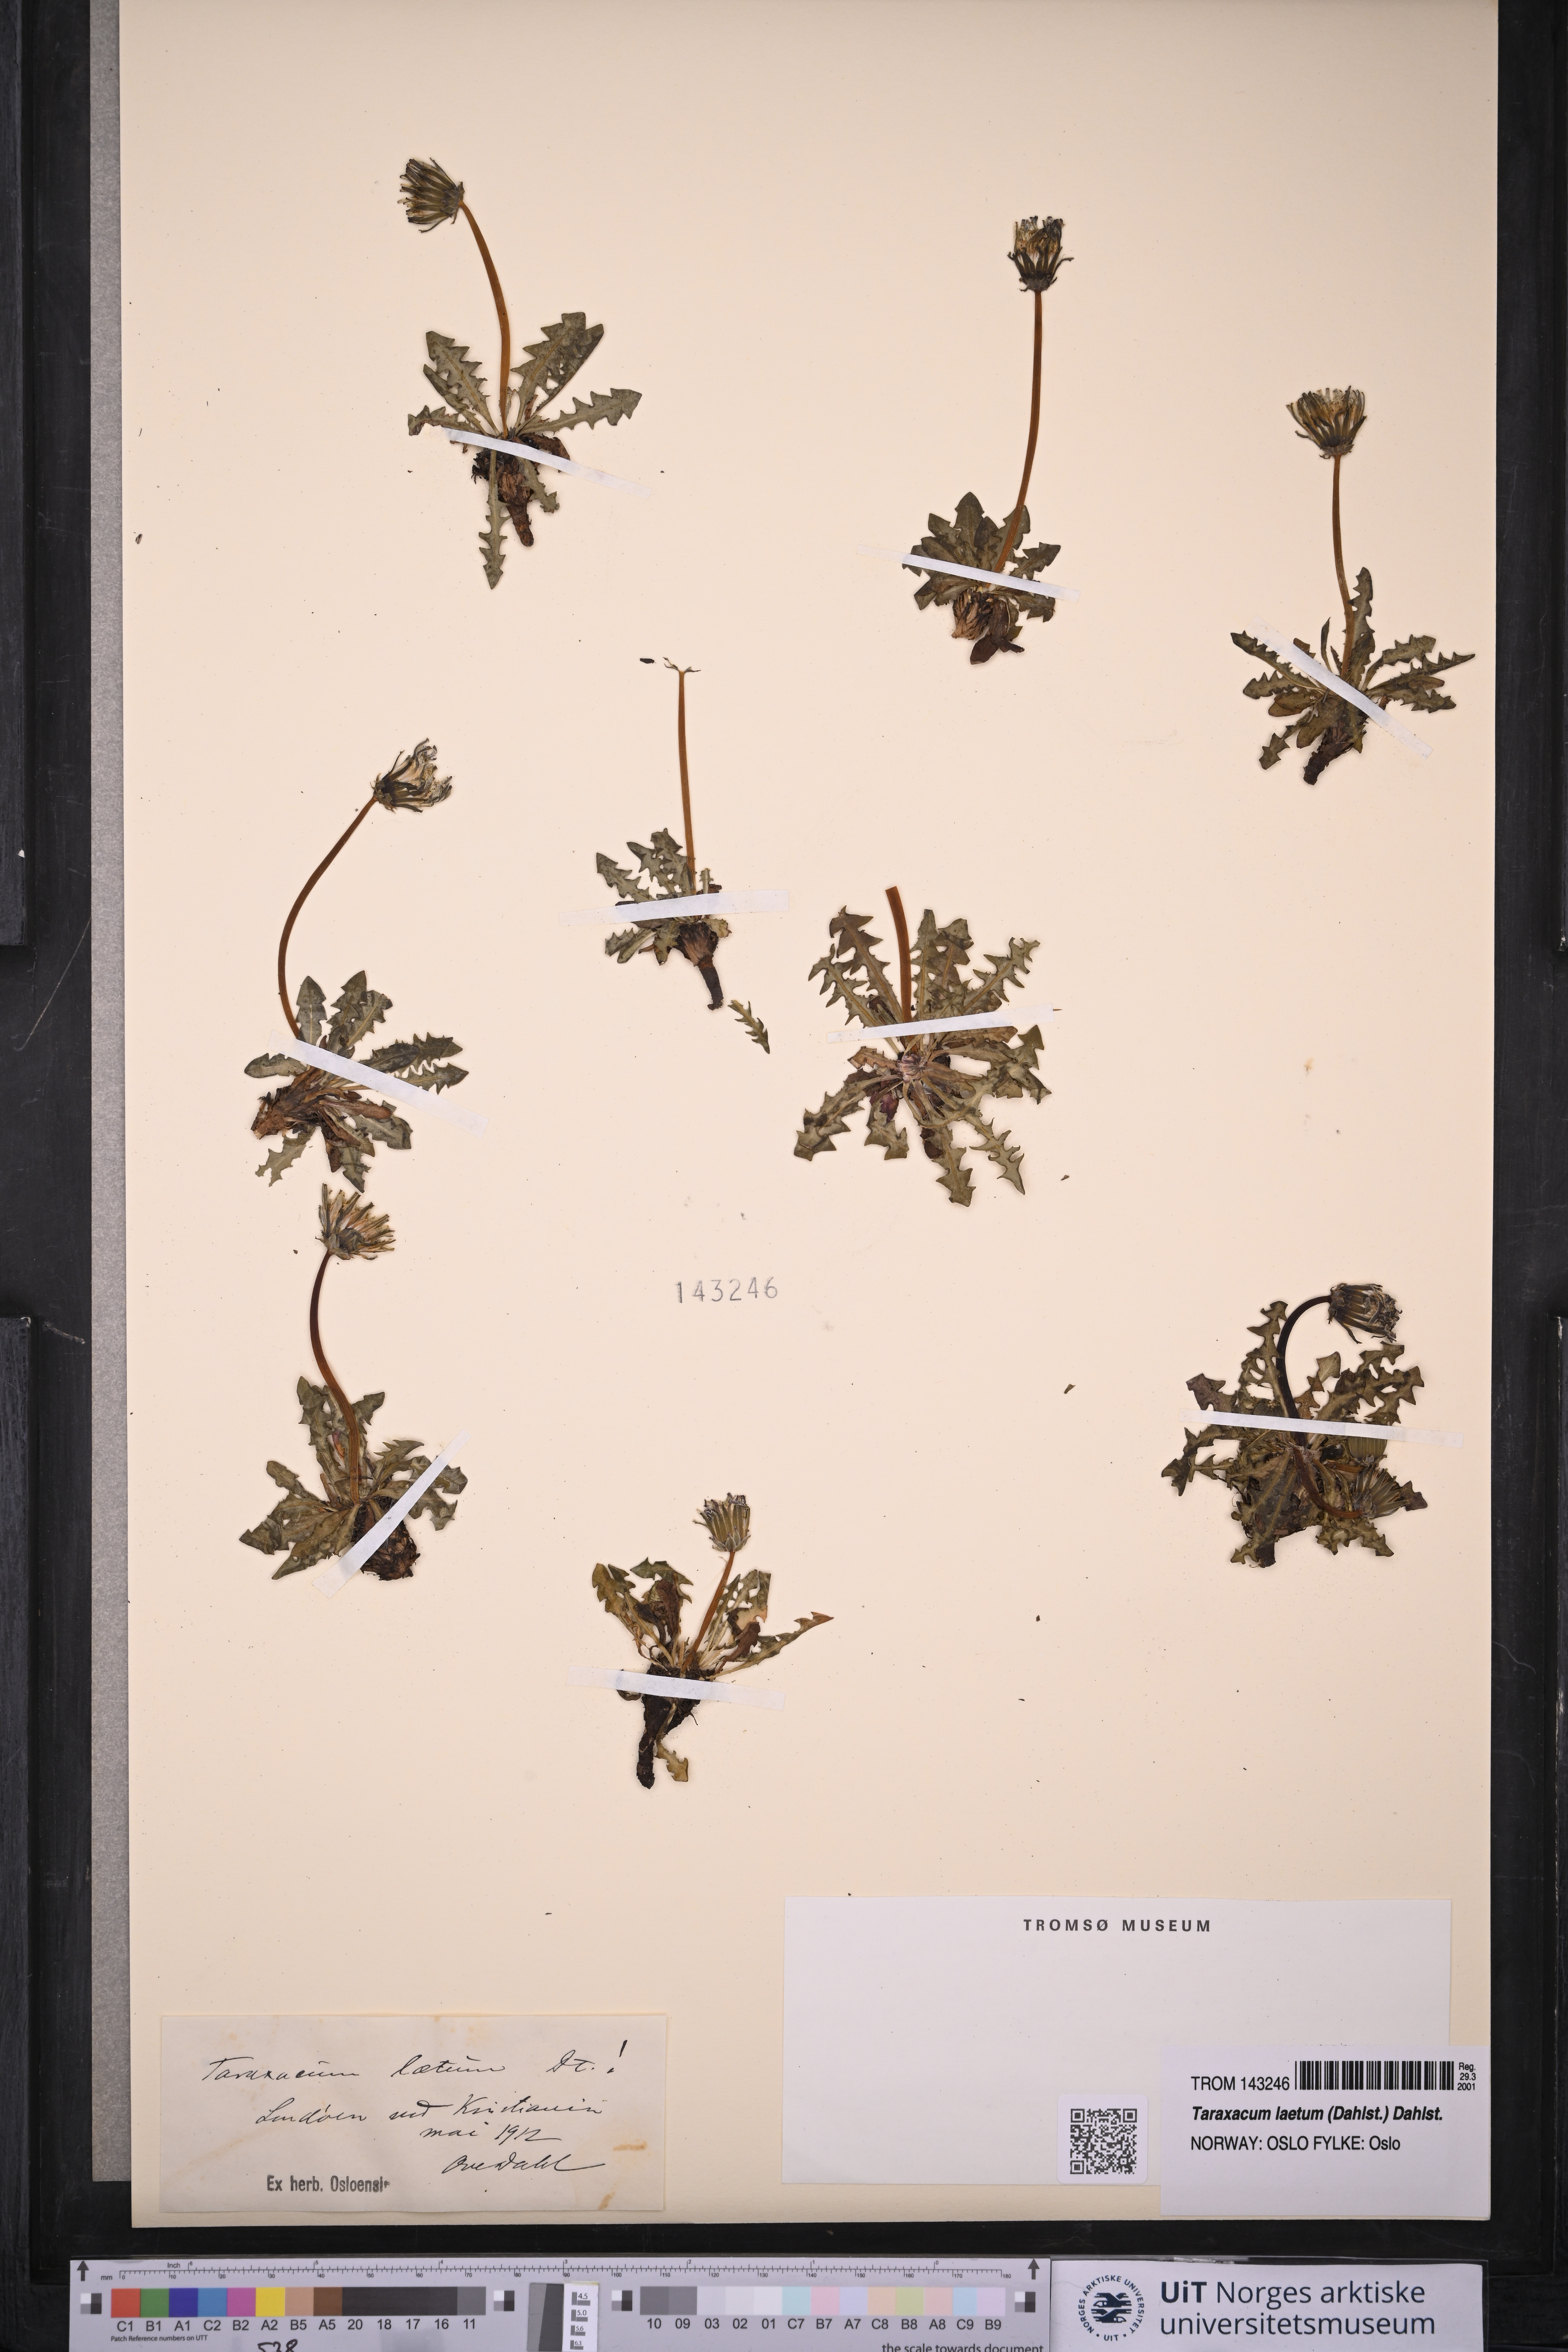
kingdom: Plantae
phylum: Tracheophyta
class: Magnoliopsida
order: Asterales
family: Asteraceae
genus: Taraxacum
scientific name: Taraxacum laetum
